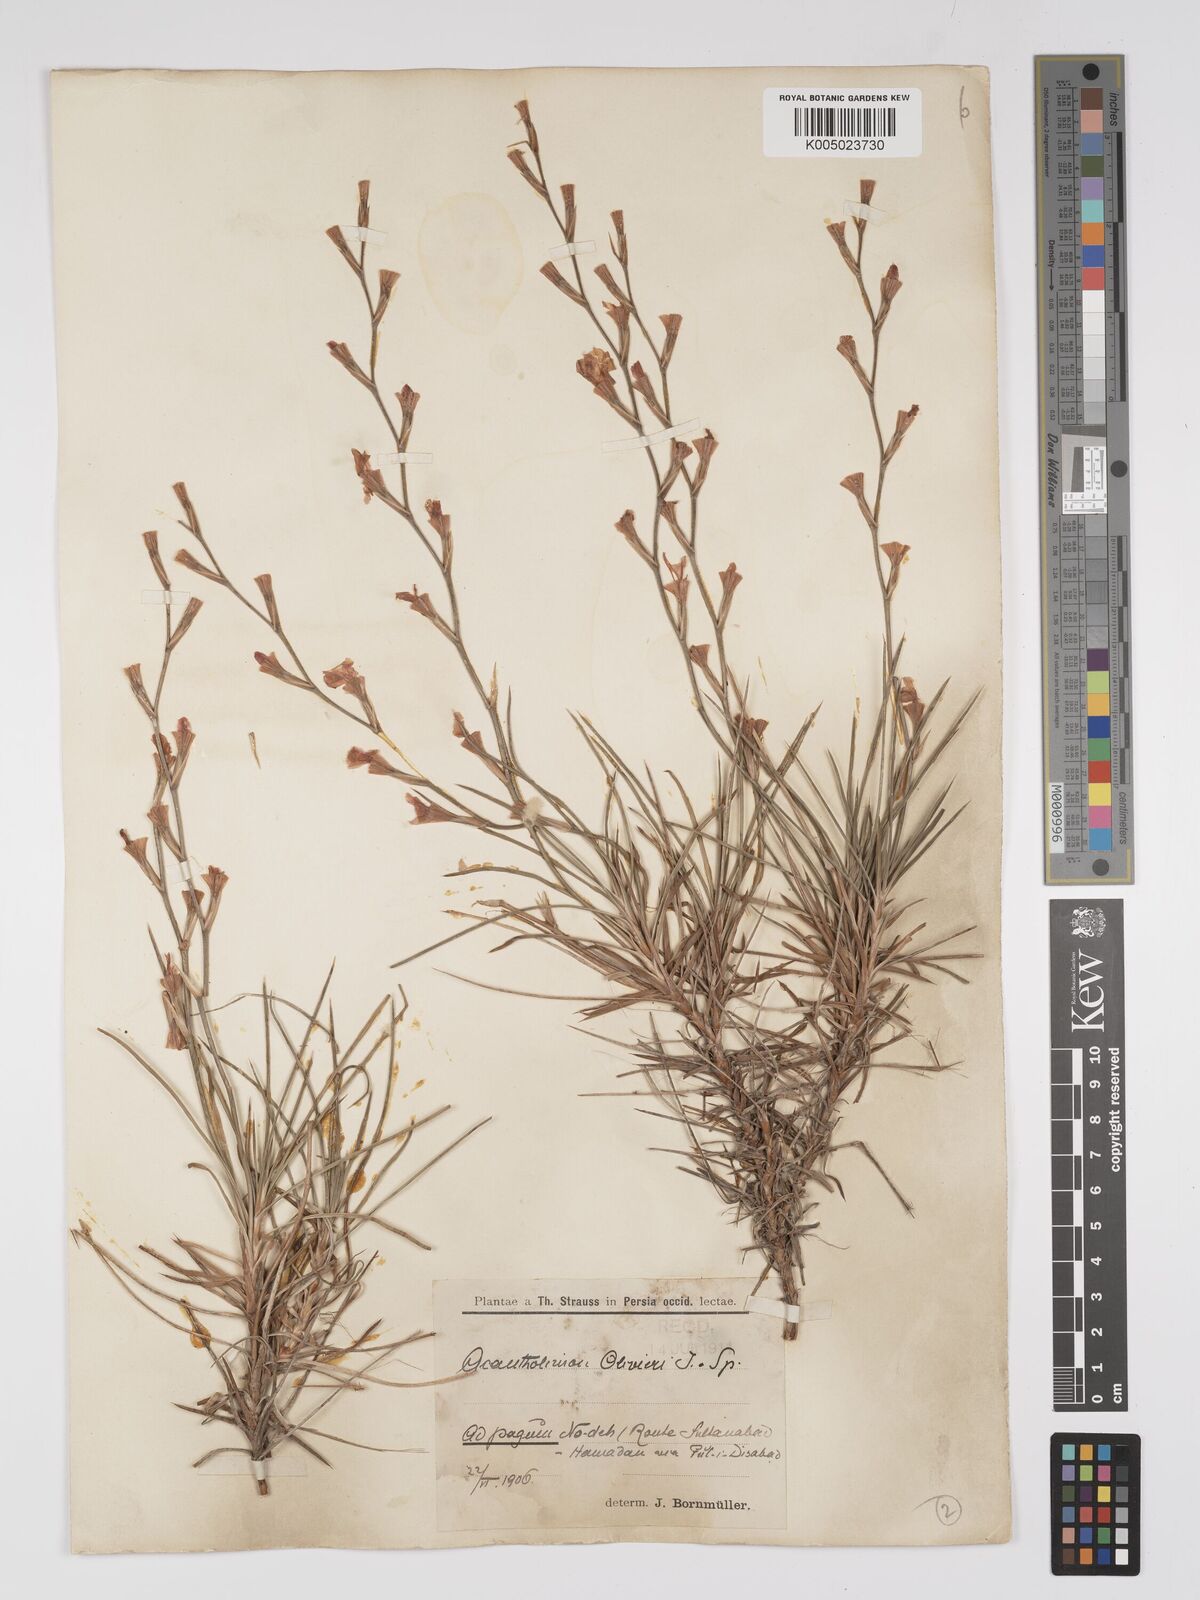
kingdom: Plantae
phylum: Tracheophyta
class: Magnoliopsida
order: Caryophyllales
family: Plumbaginaceae
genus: Acantholimon
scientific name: Acantholimon oliveri
